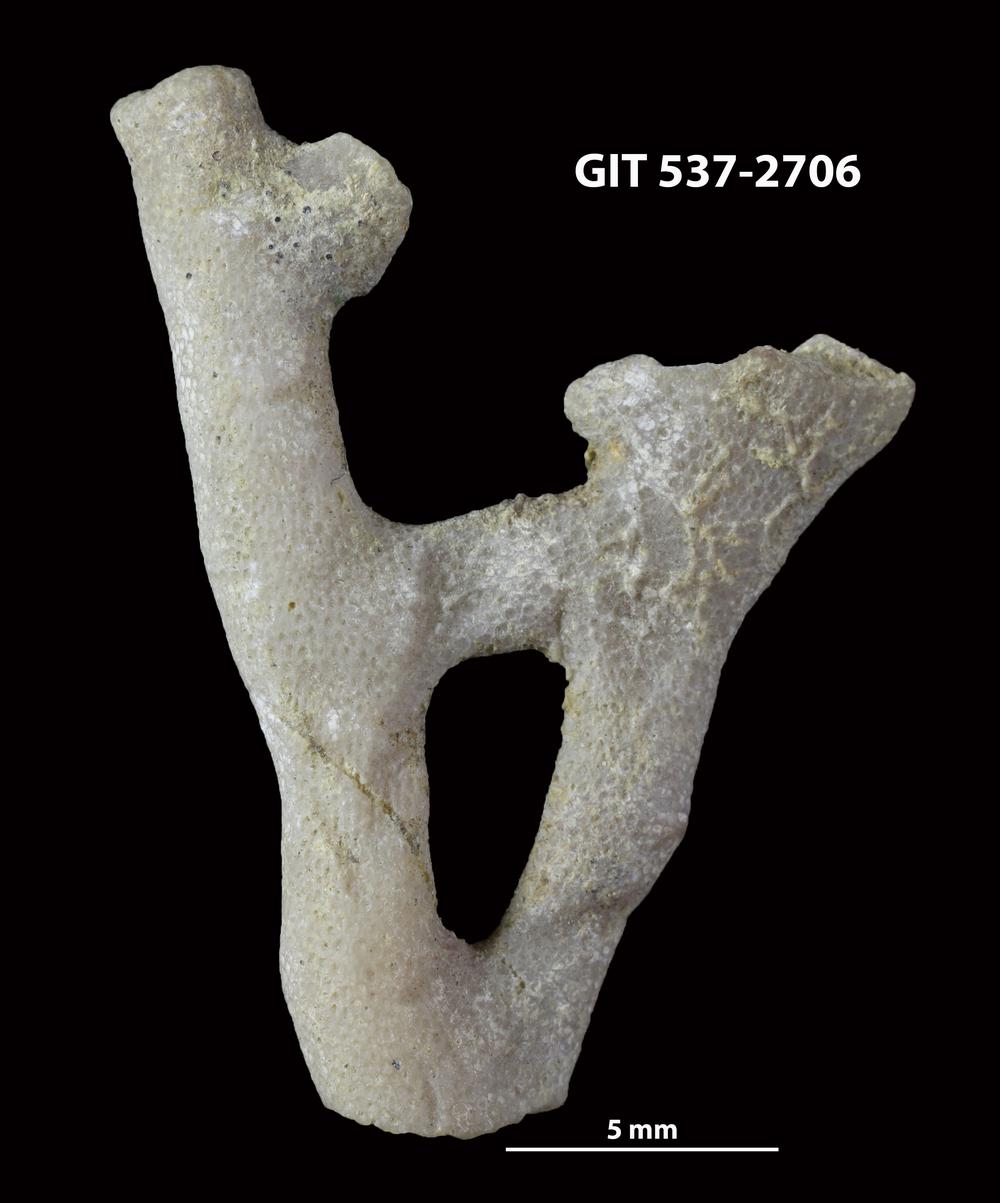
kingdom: Animalia
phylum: Bryozoa
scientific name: Bryozoa
